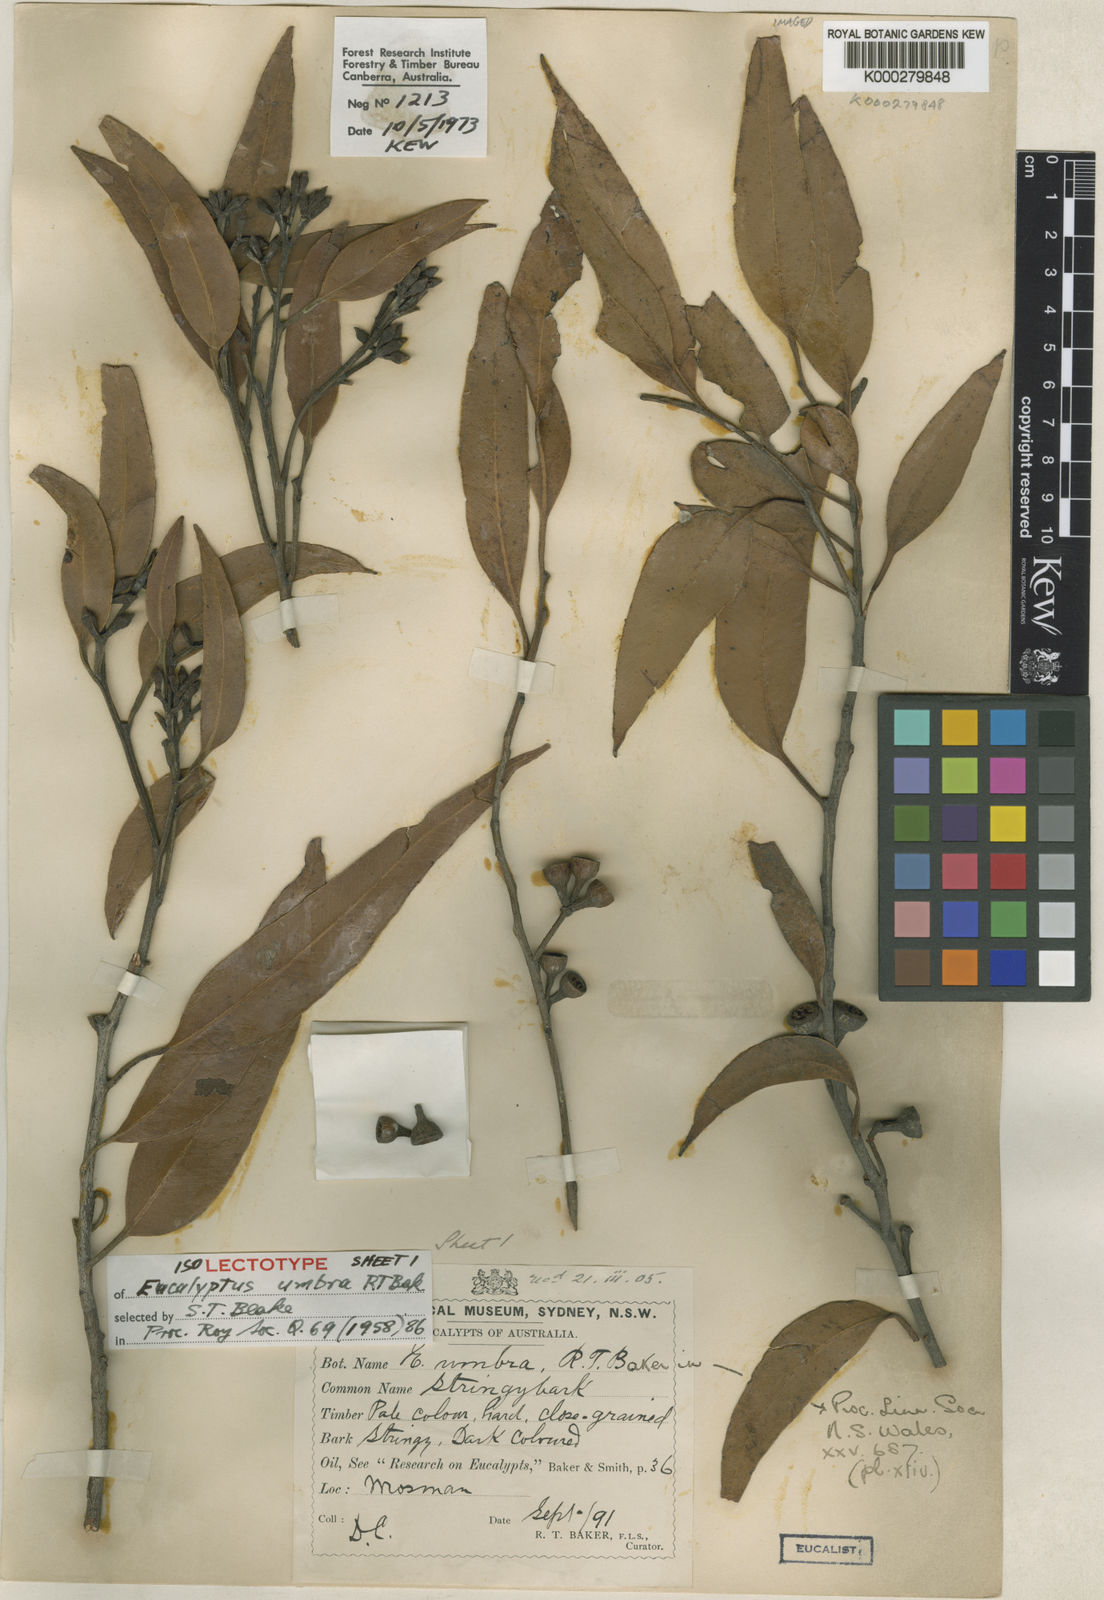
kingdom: Plantae
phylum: Tracheophyta
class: Magnoliopsida
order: Myrtales
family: Myrtaceae
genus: Eucalyptus
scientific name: Eucalyptus umbra
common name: White-mahogany
